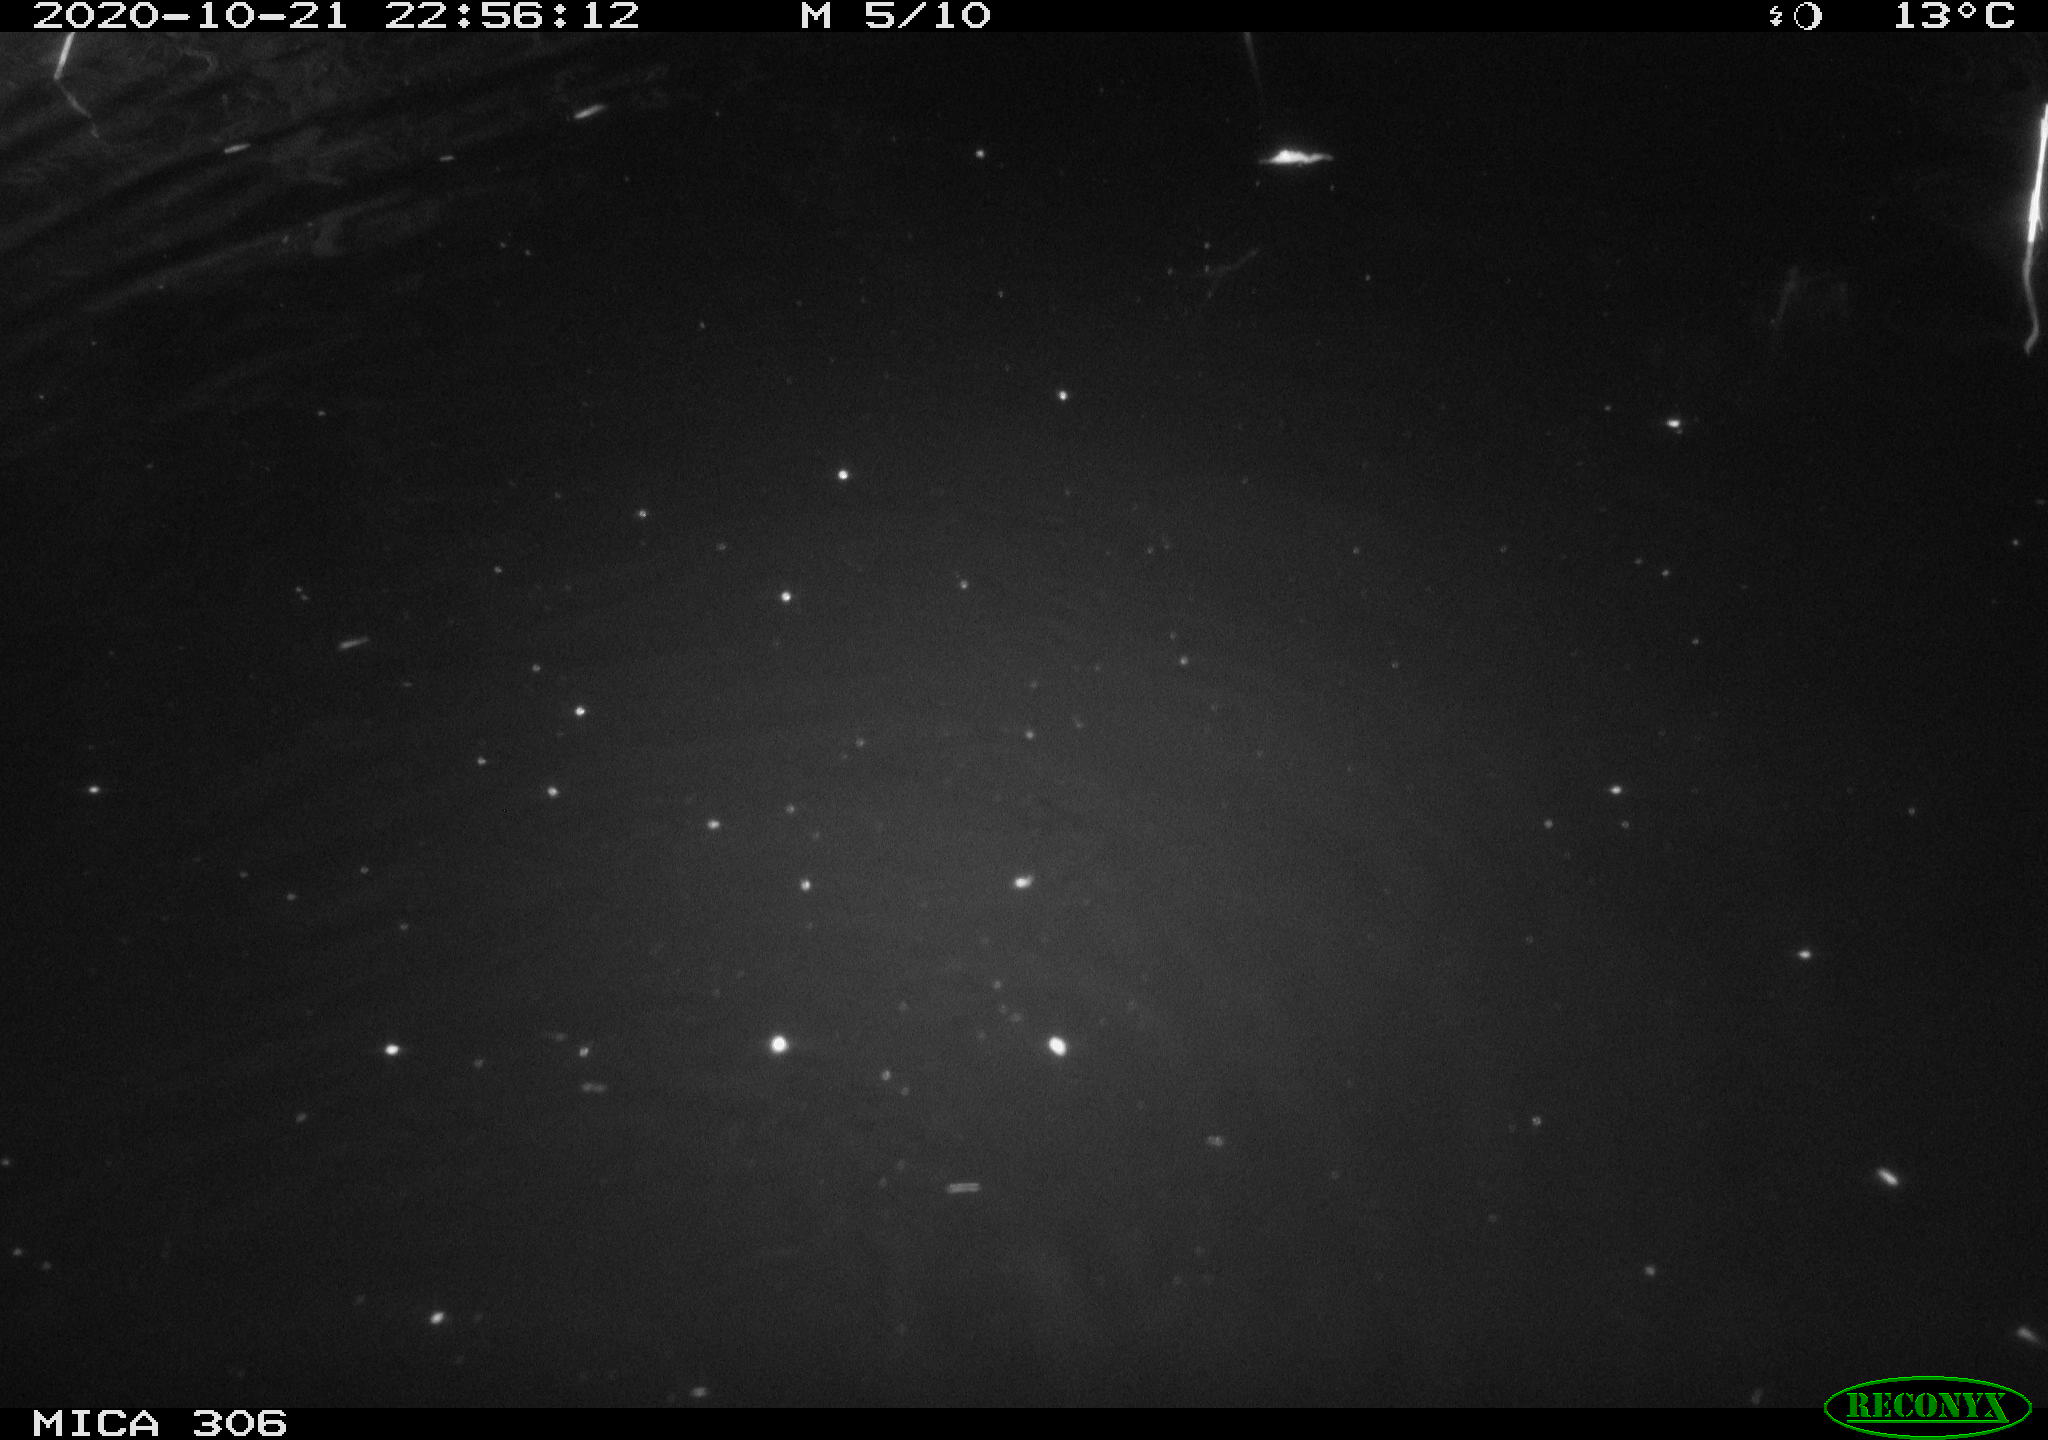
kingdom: Animalia
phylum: Chordata
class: Mammalia
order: Rodentia
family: Cricetidae
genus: Ondatra
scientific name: Ondatra zibethicus
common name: Muskrat
